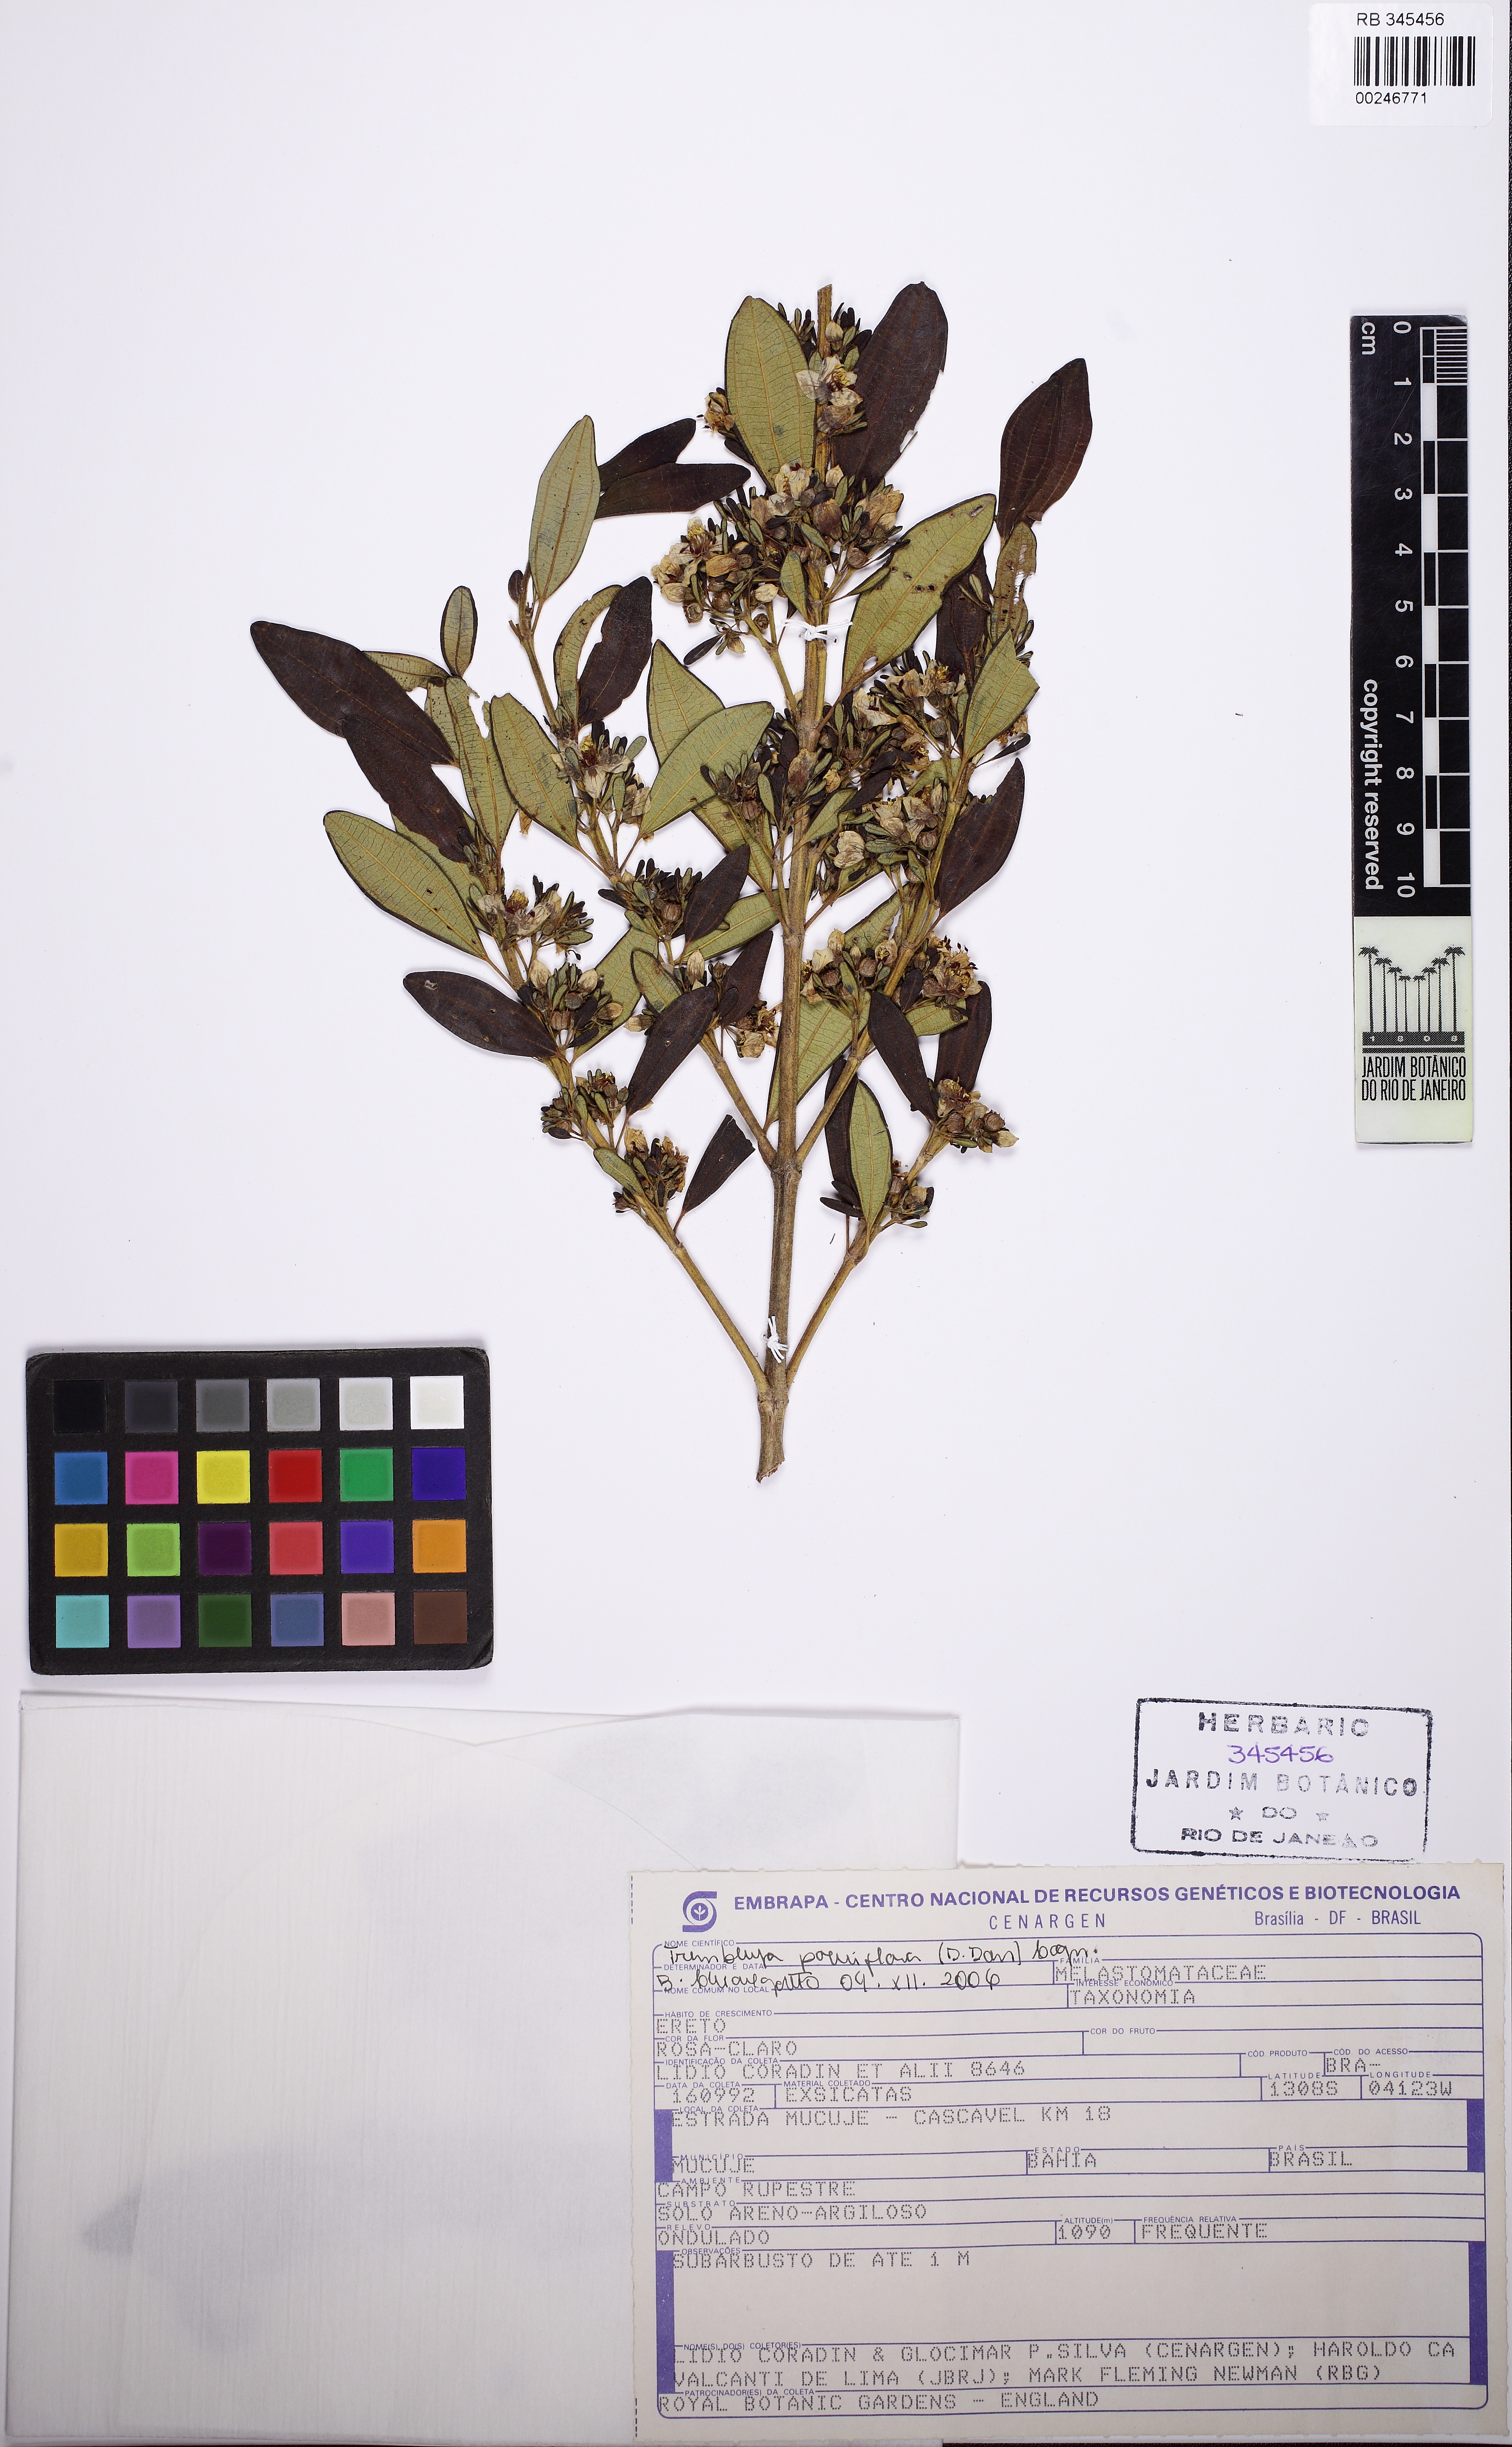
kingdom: Plantae
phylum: Tracheophyta
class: Magnoliopsida
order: Myrtales
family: Melastomataceae
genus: Microlicia
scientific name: Microlicia parviflora
